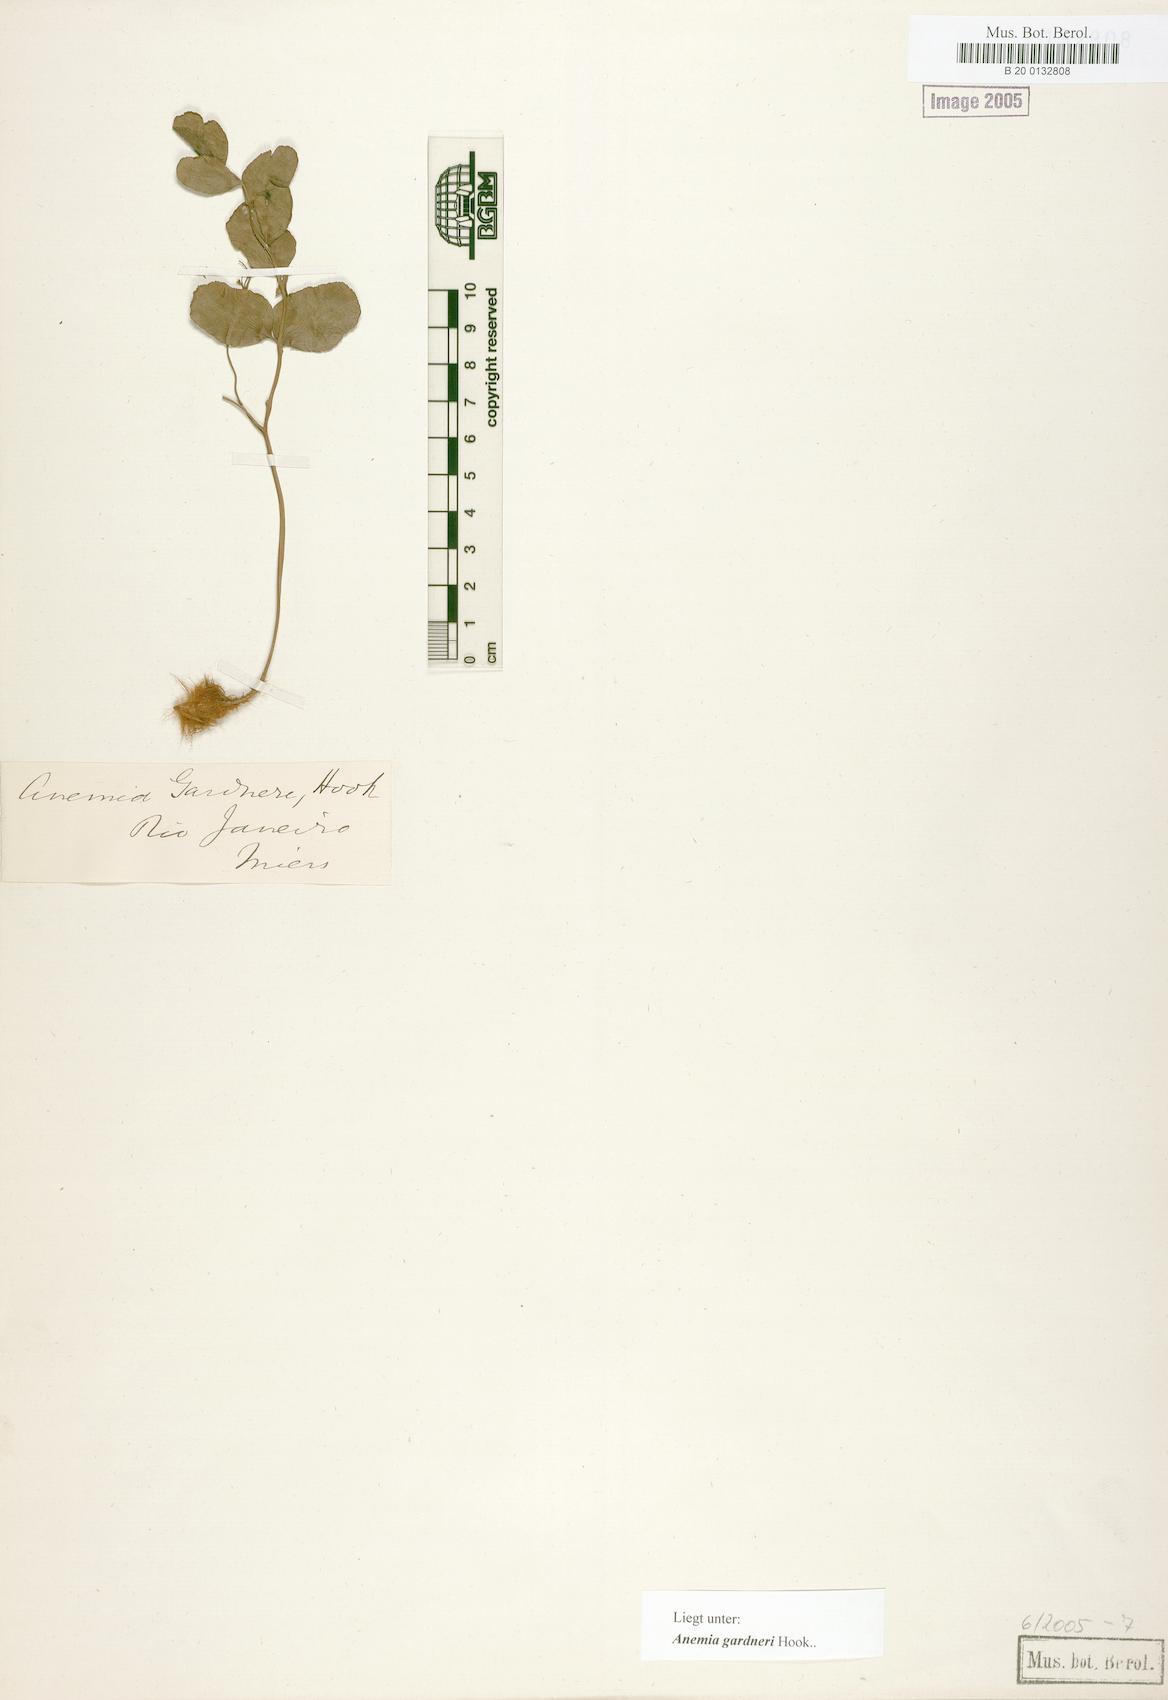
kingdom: Plantae
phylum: Tracheophyta
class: Polypodiopsida
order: Schizaeales
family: Anemiaceae
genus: Anemia
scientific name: Anemia gardneri
